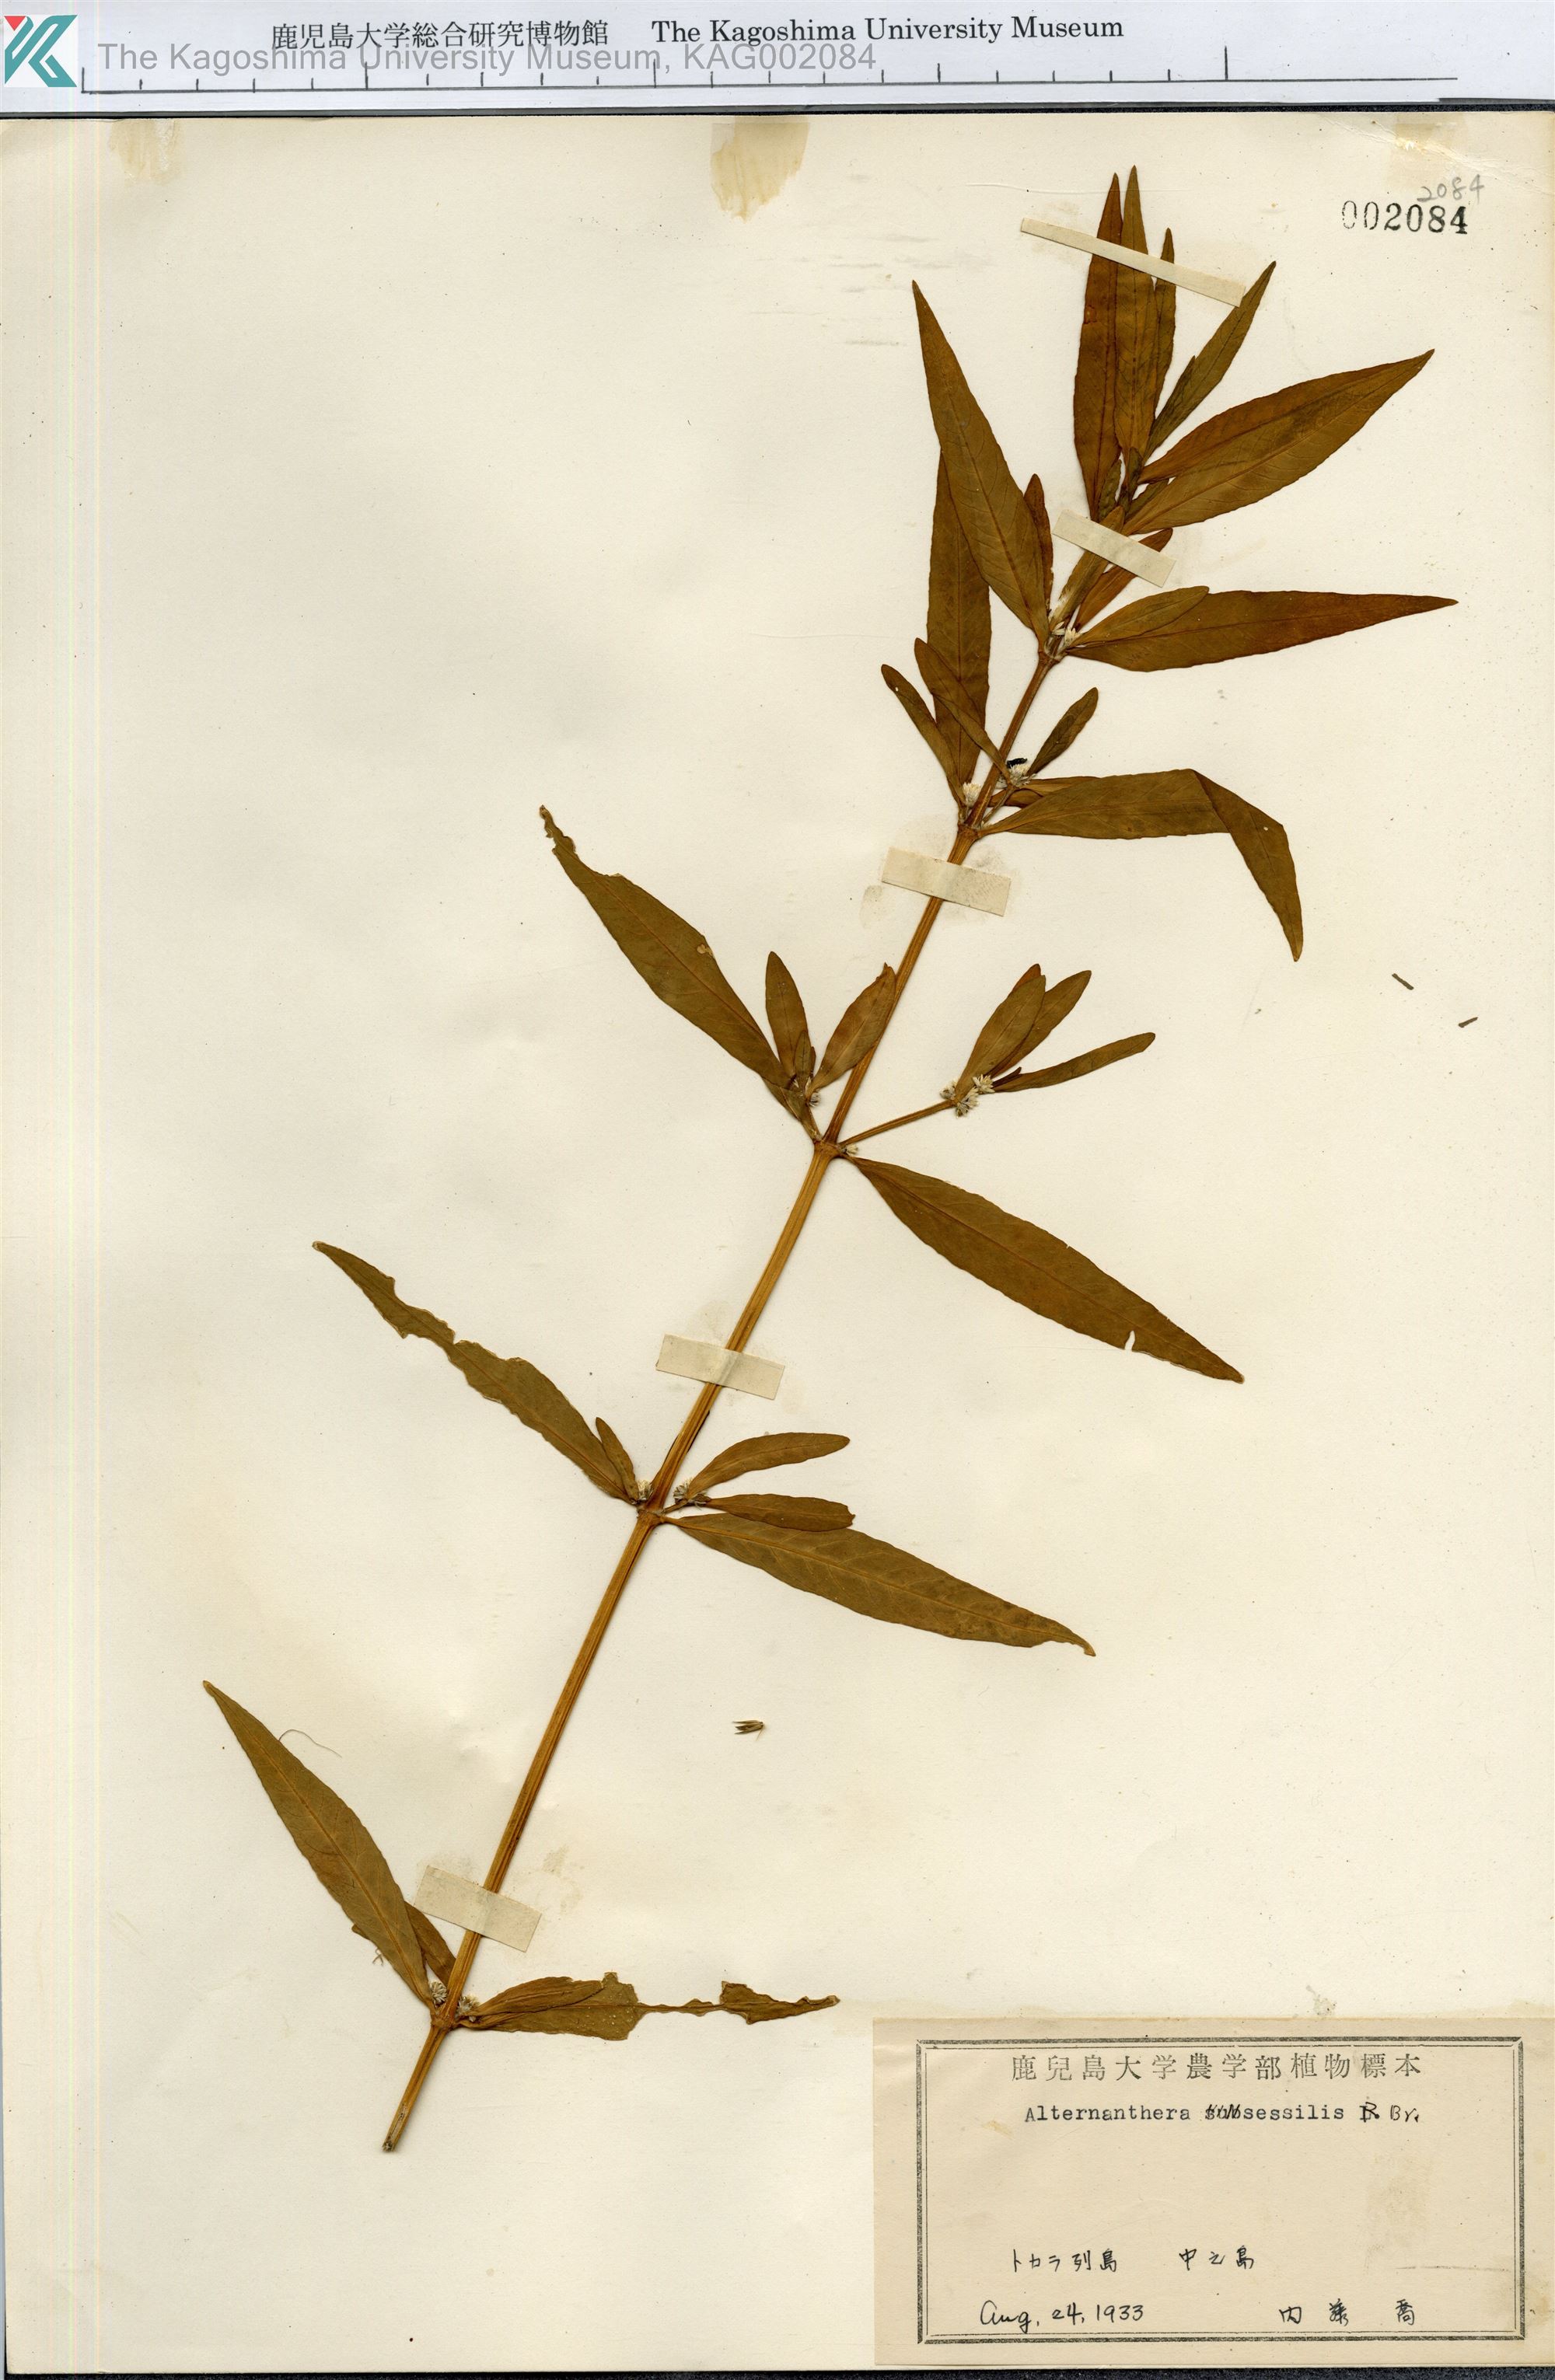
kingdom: Plantae
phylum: Tracheophyta
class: Magnoliopsida
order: Caryophyllales
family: Amaranthaceae
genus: Alternanthera
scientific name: Alternanthera sessilis
